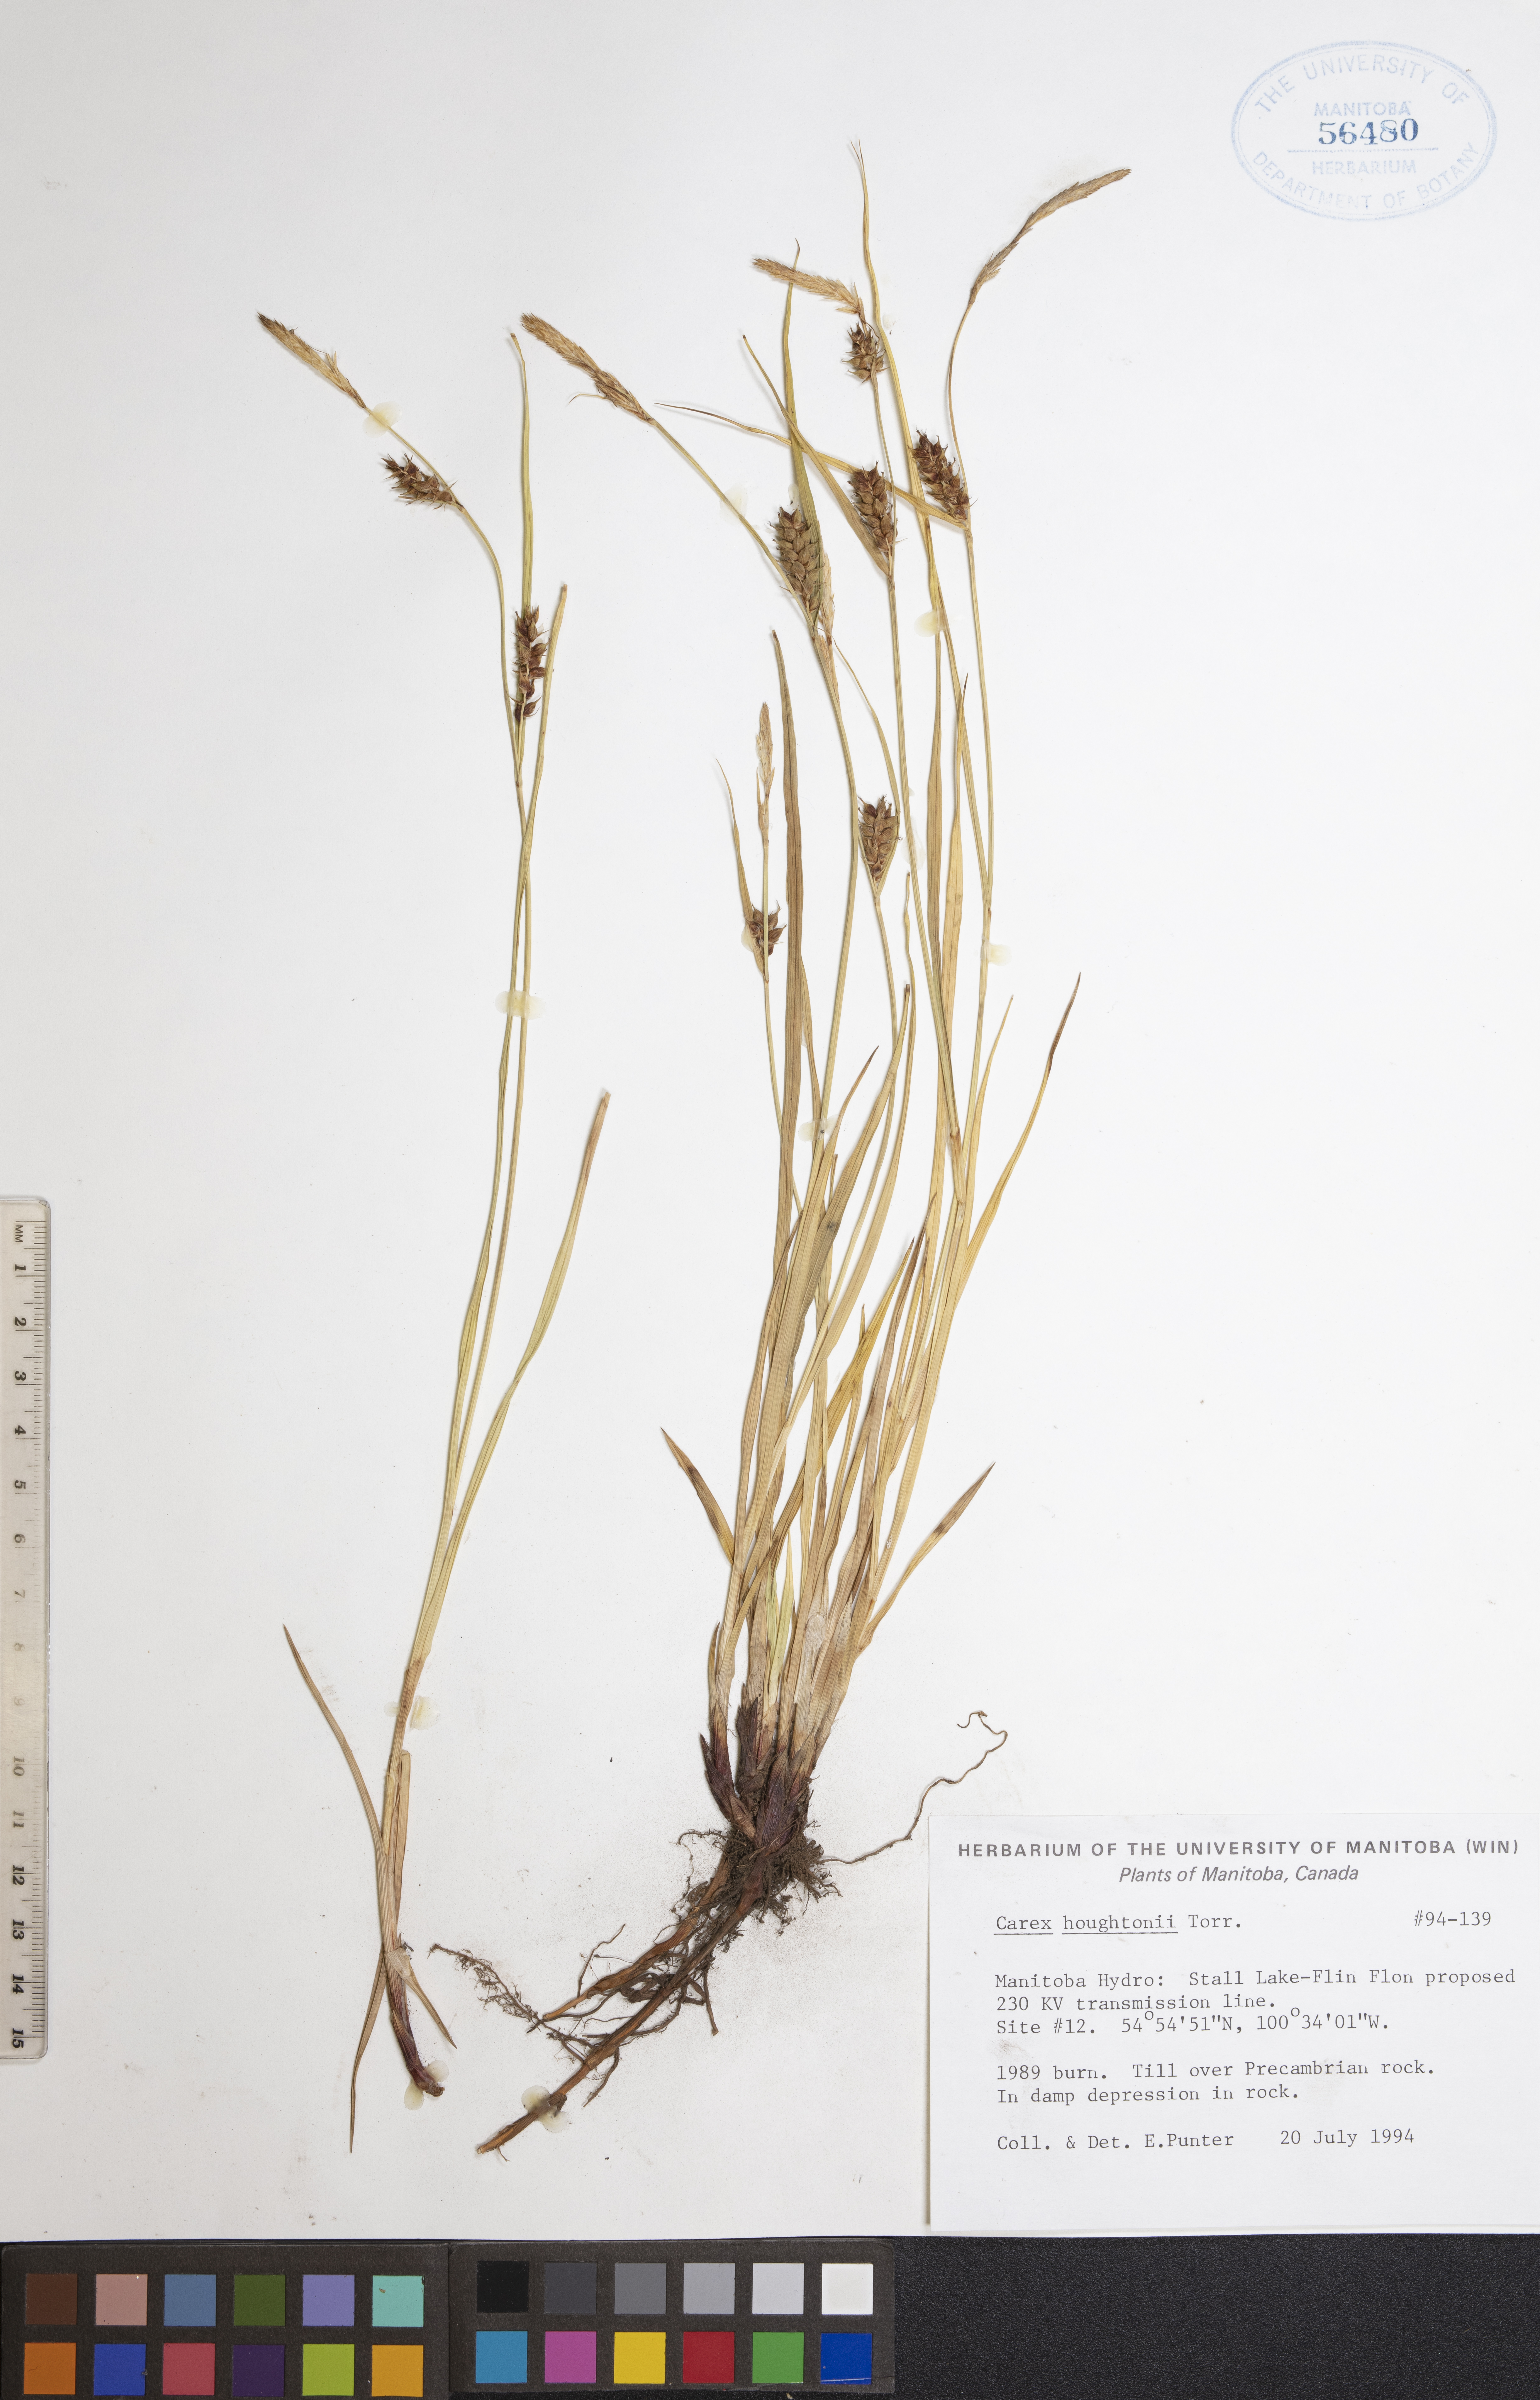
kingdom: Plantae
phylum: Tracheophyta
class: Liliopsida
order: Poales
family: Cyperaceae
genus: Carex
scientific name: Carex houghtoniana
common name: Houghton's sedge
